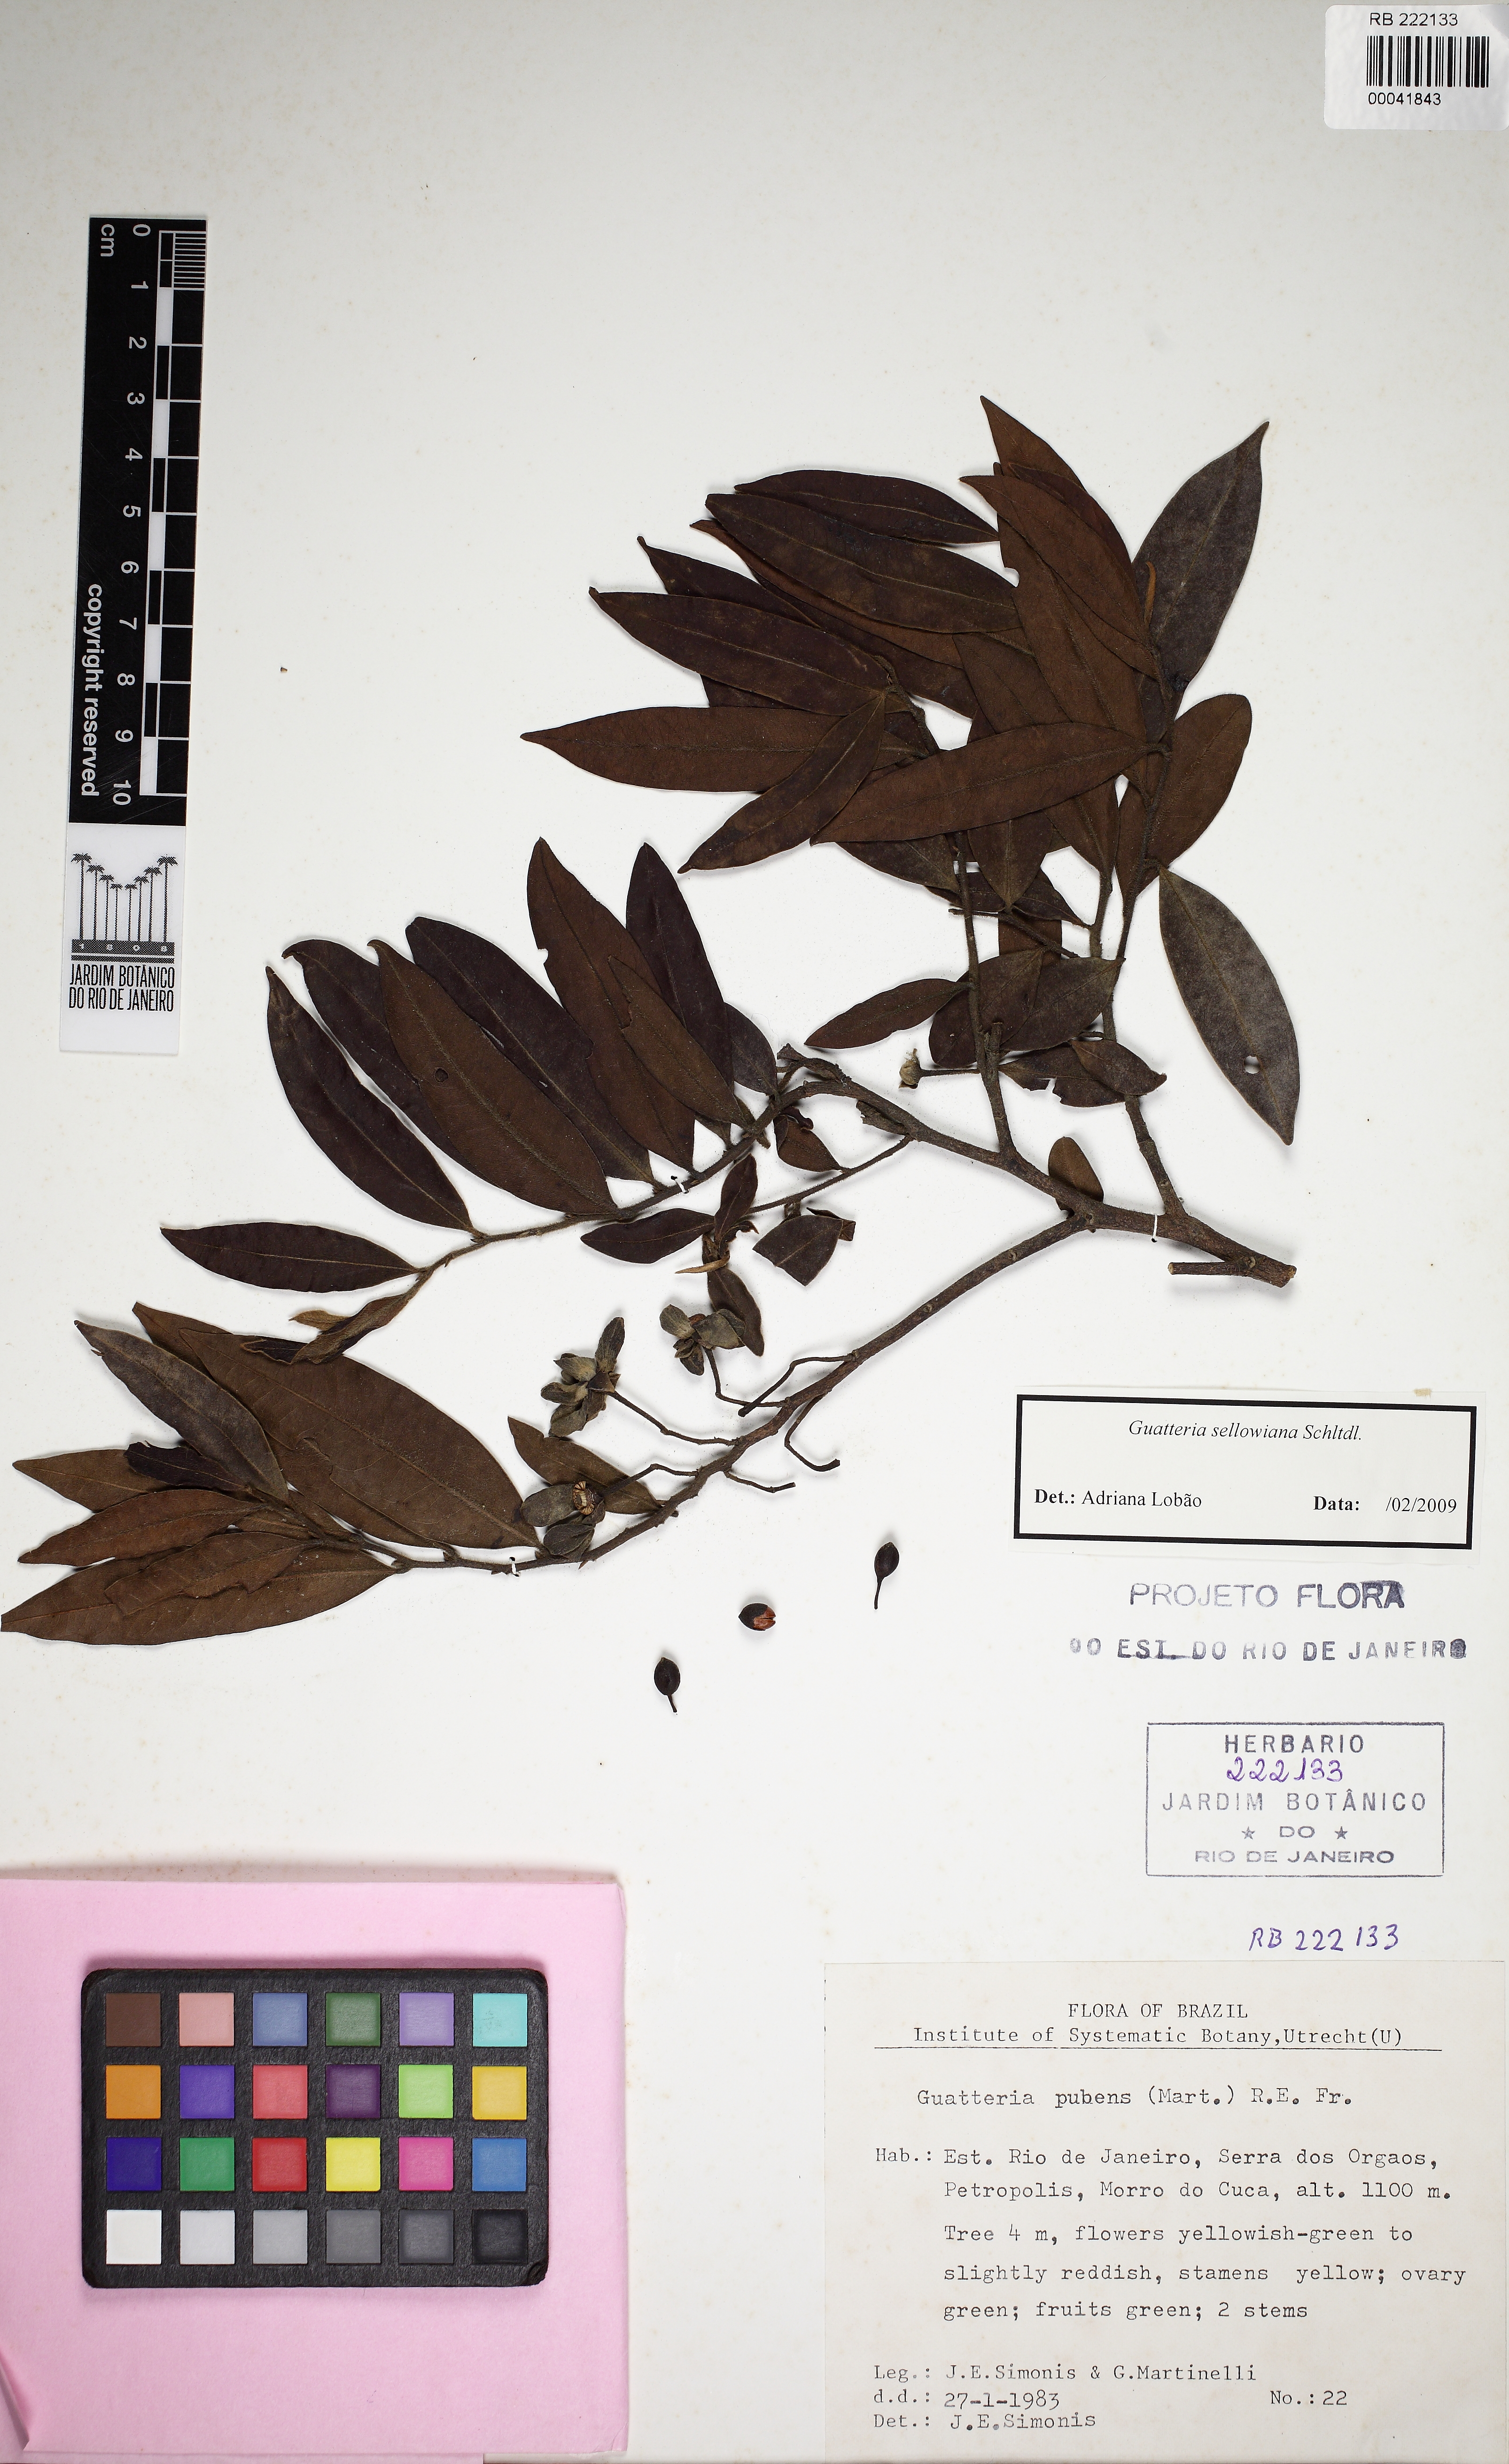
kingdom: Plantae
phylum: Tracheophyta
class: Magnoliopsida
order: Magnoliales
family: Annonaceae
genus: Guatteria
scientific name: Guatteria sellowiana
